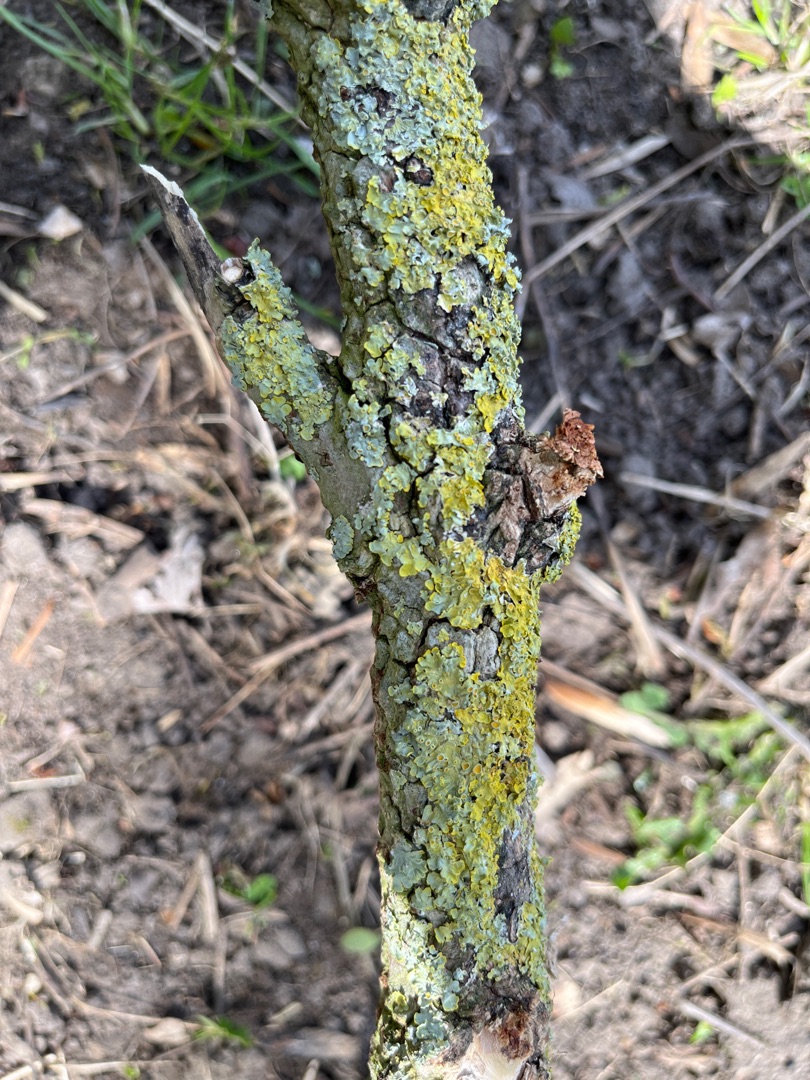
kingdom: Fungi
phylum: Ascomycota
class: Lecanoromycetes
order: Teloschistales
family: Teloschistaceae
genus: Xanthoria
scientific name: Xanthoria parietina
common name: Almindelig væggelav
